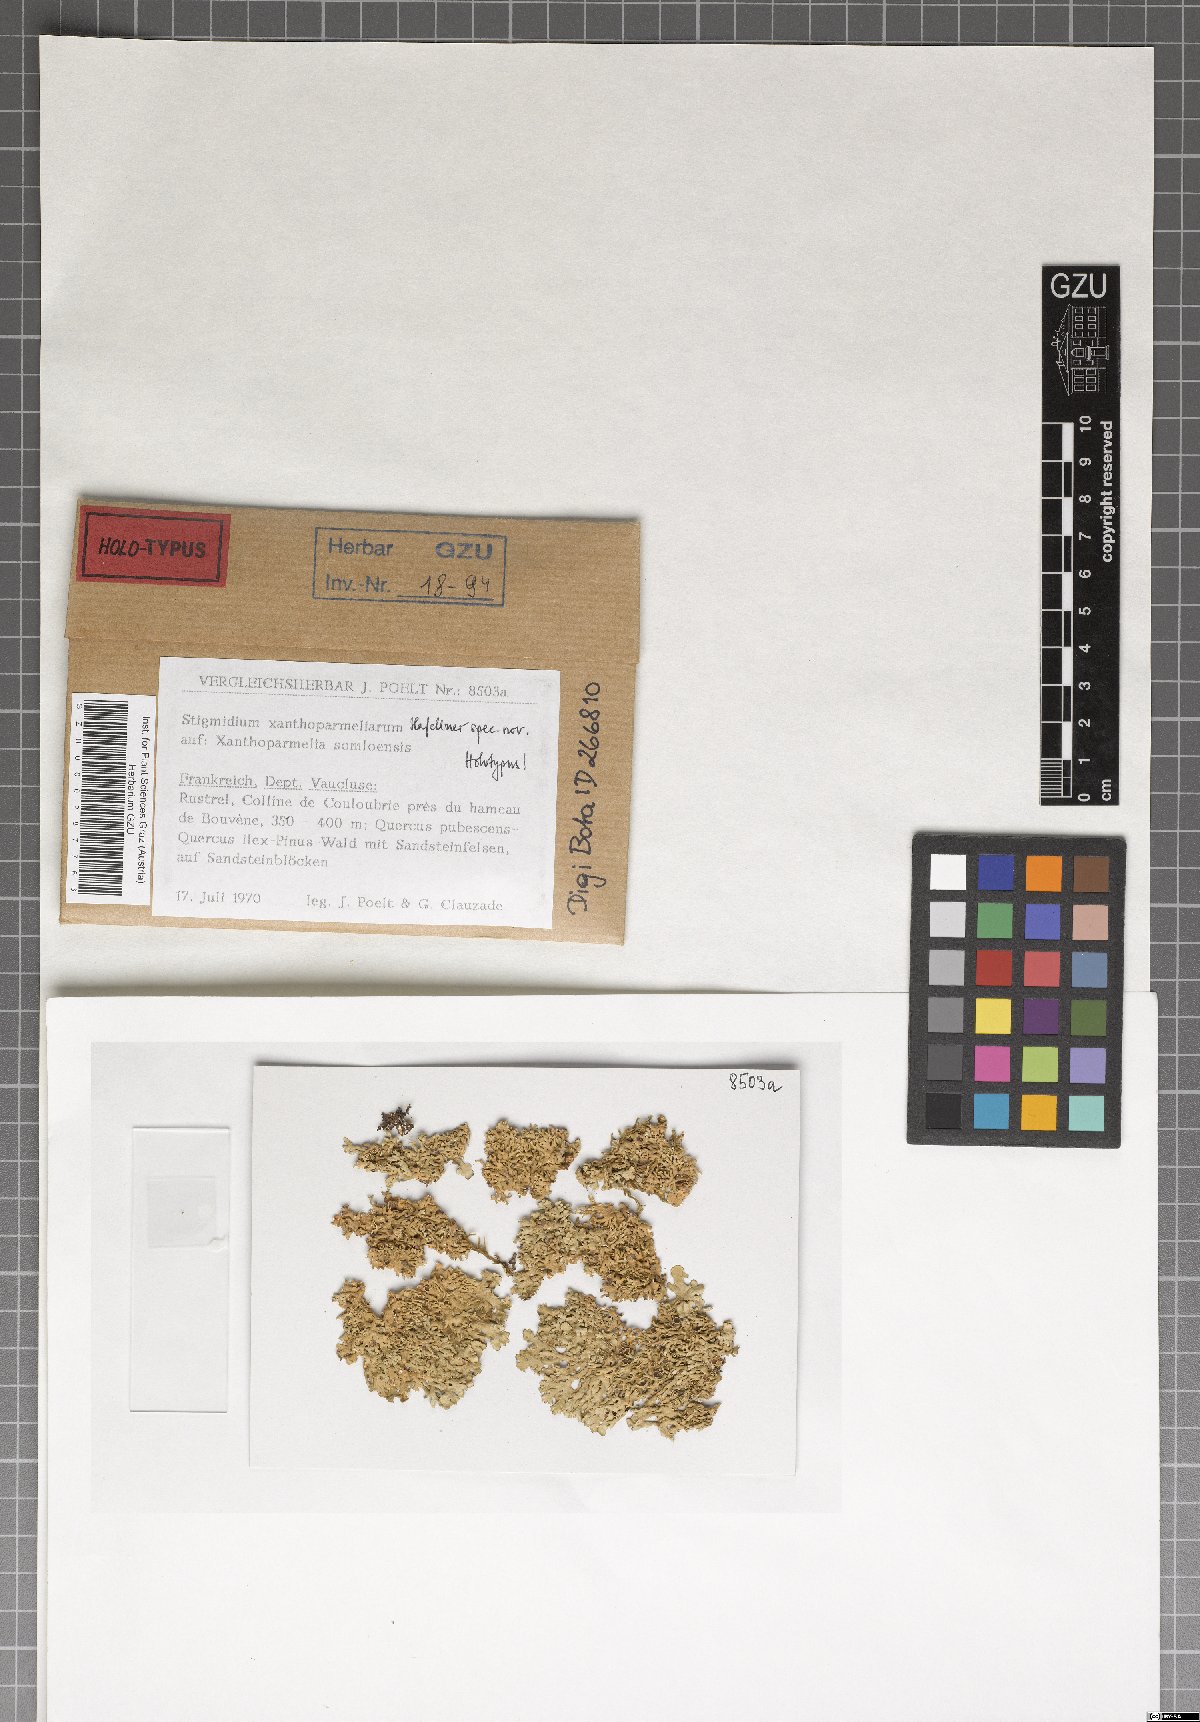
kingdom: Fungi
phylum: Ascomycota
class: Dothideomycetes
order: Mycosphaerellales
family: Mycosphaerellaceae
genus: Stigmidium
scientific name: Stigmidium xanthoparmeliarum
